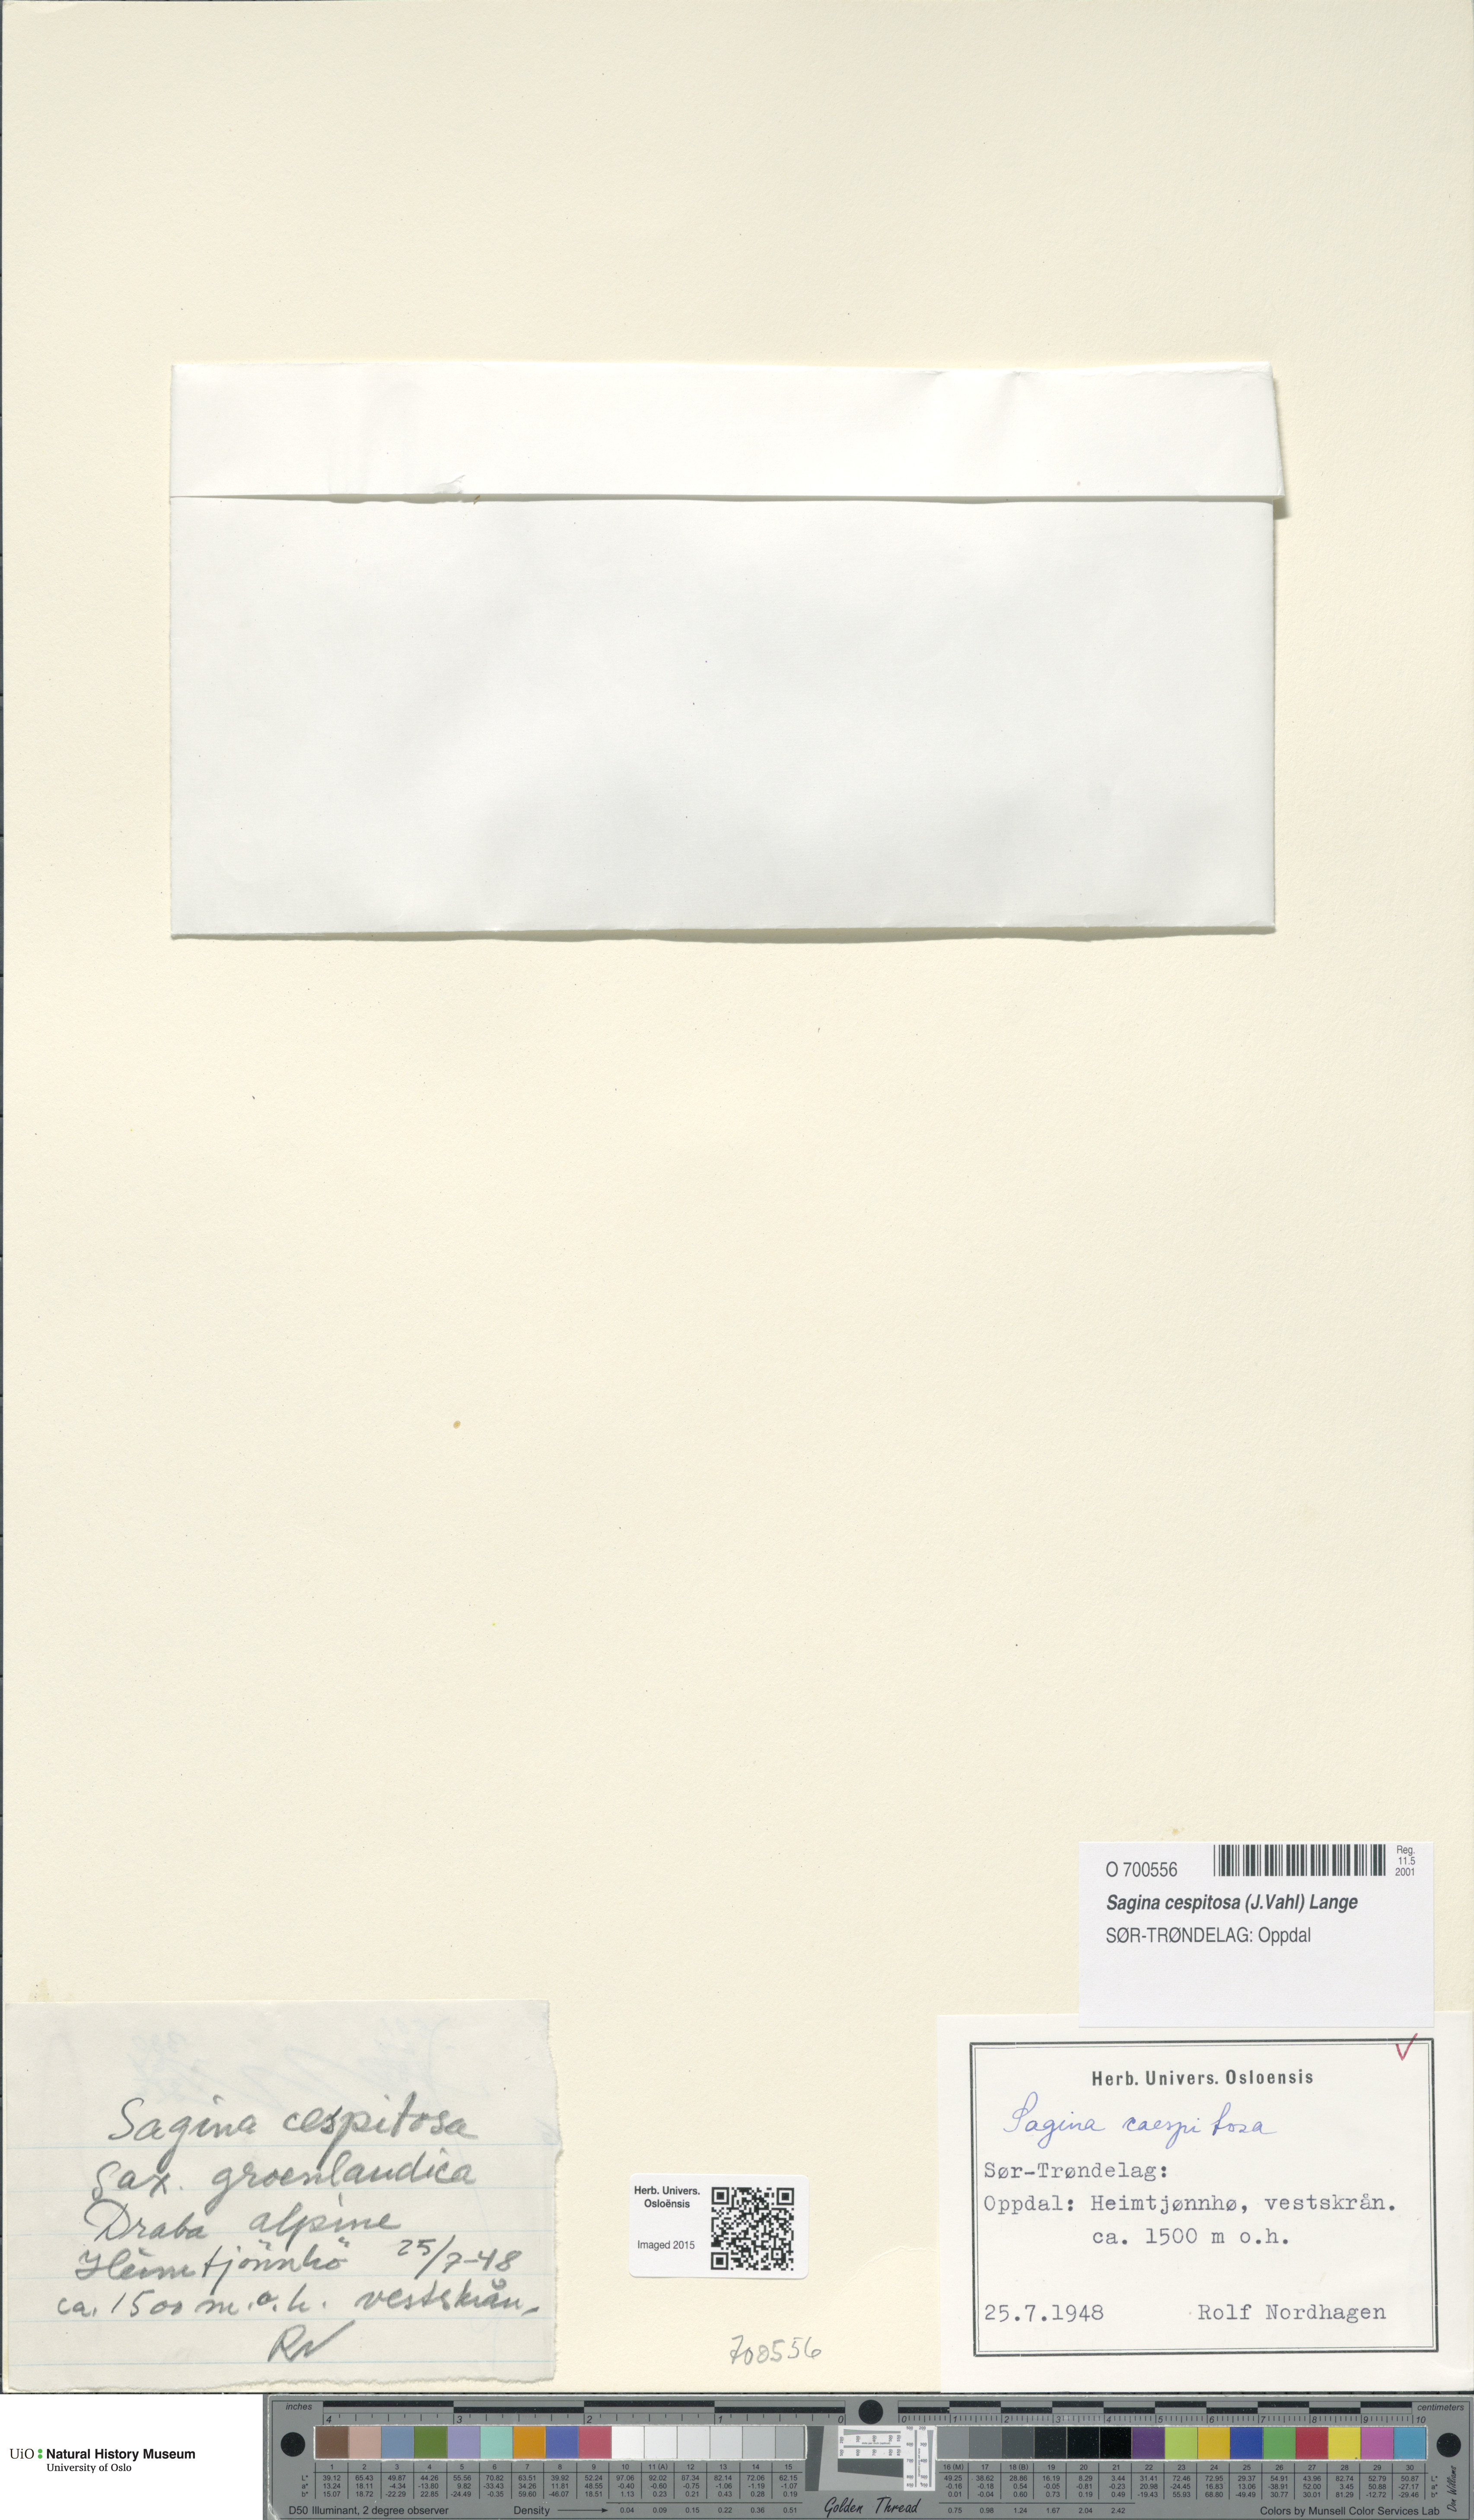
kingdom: Plantae
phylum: Tracheophyta
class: Magnoliopsida
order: Caryophyllales
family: Caryophyllaceae
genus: Sagina
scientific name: Sagina caespitosa
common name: Tufted pearlwort
